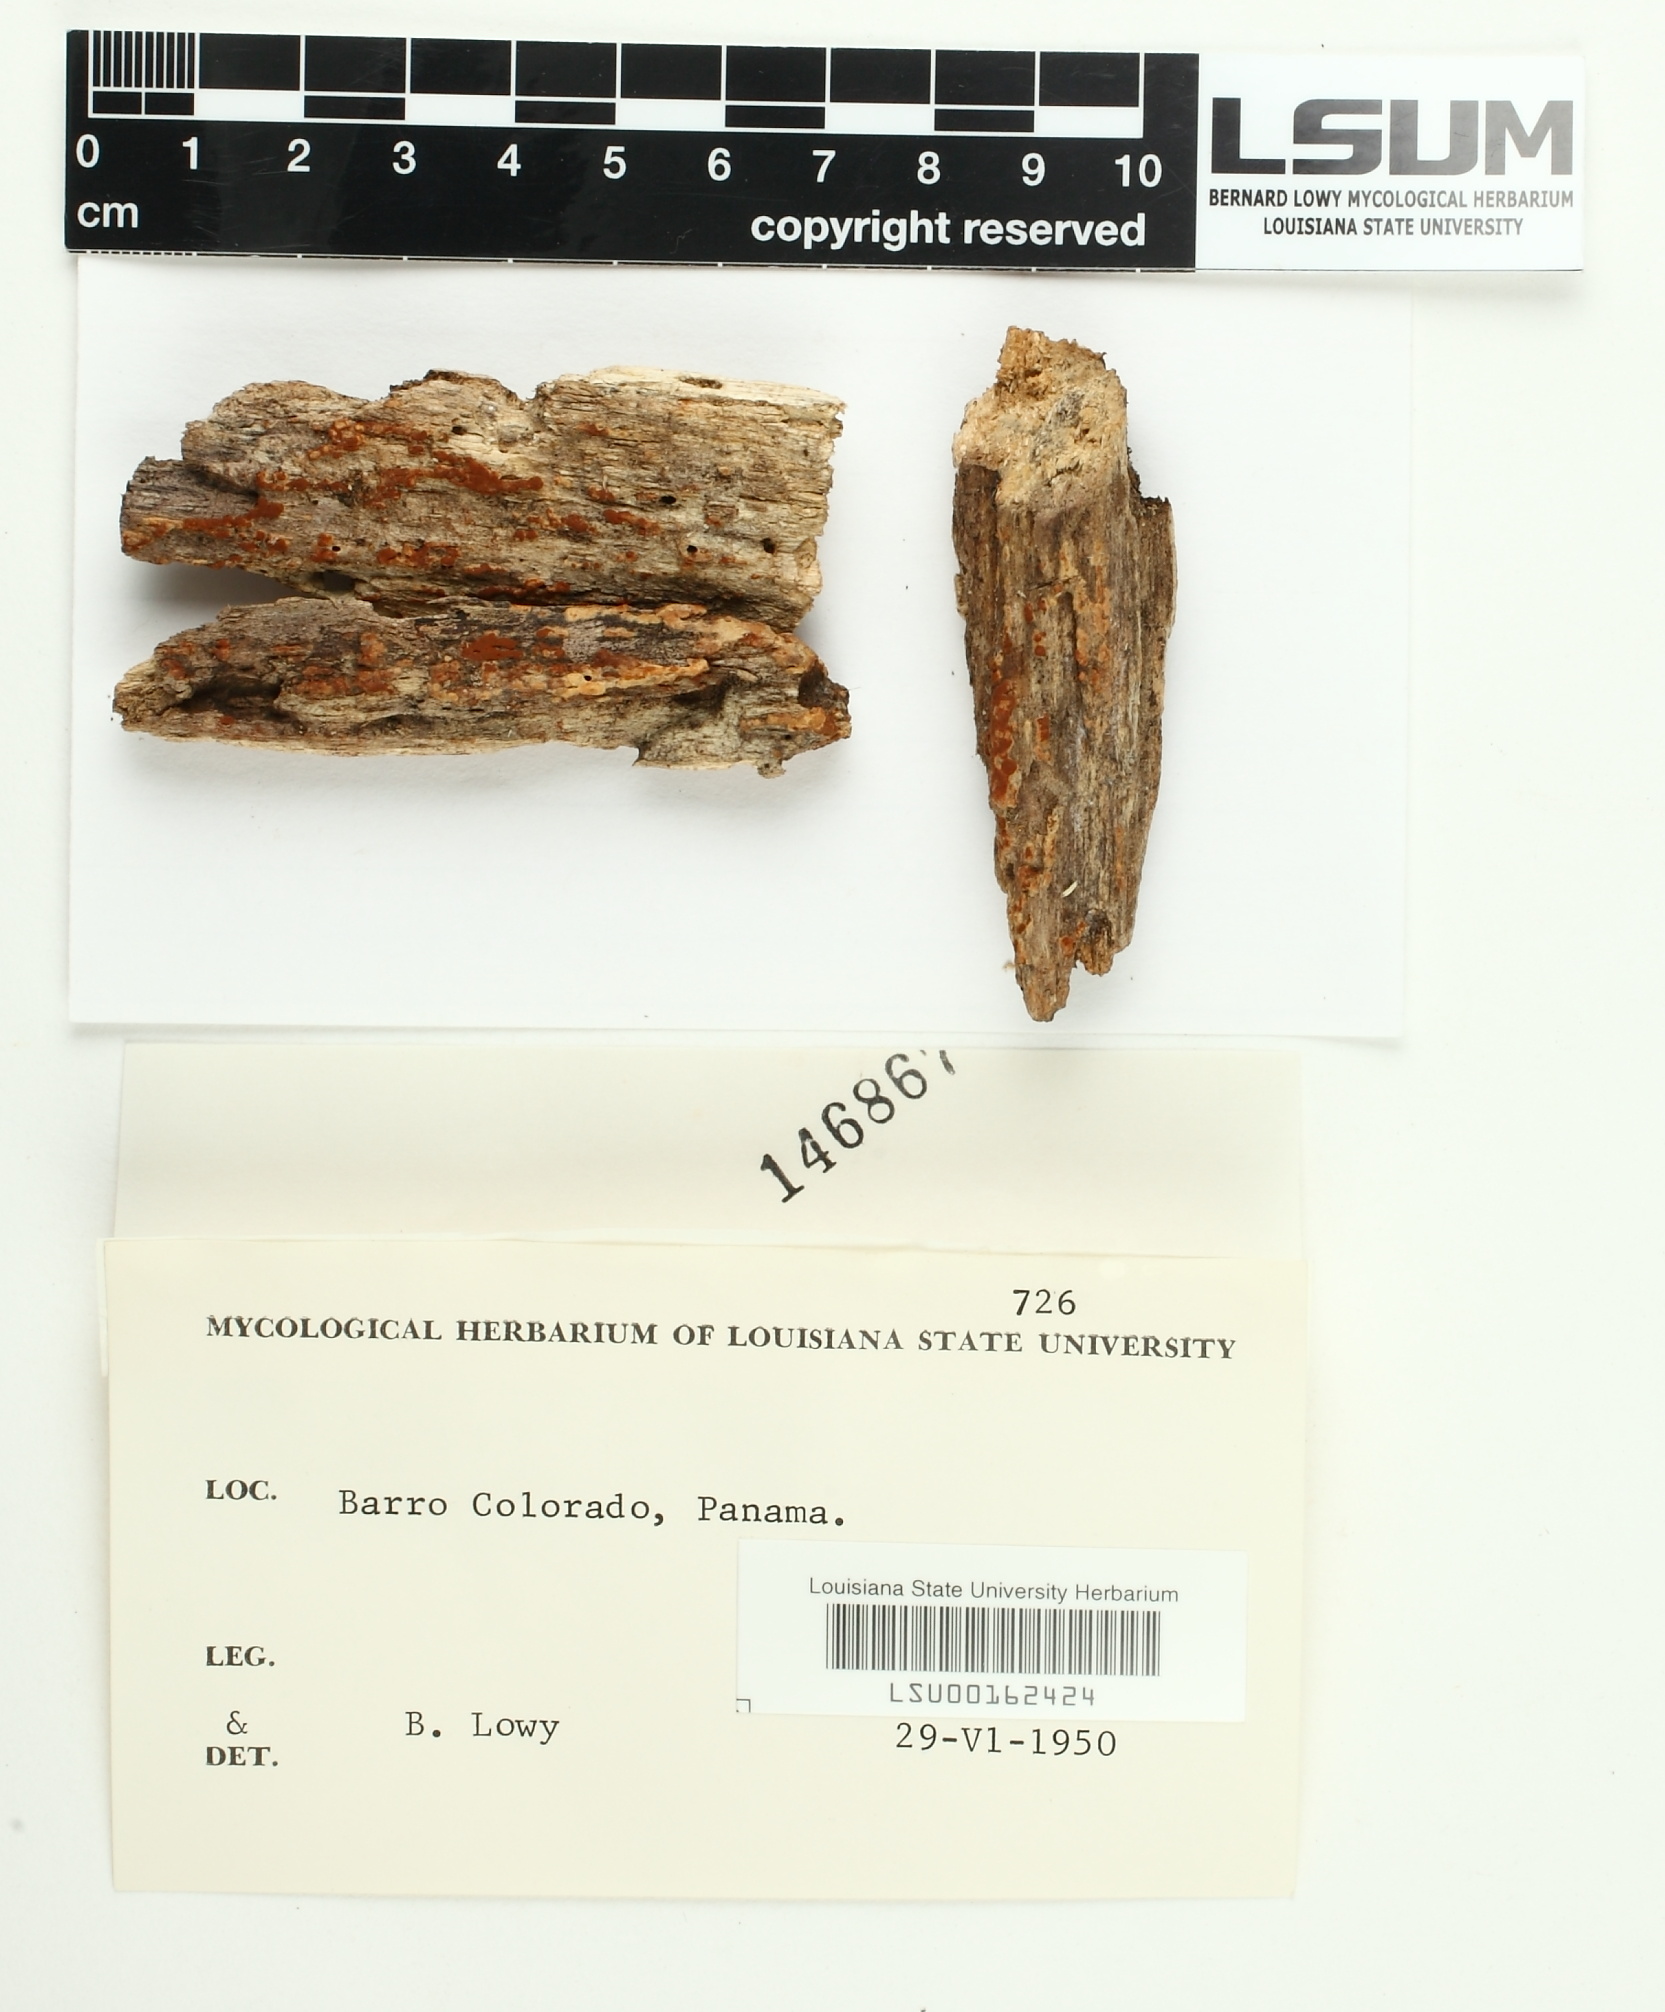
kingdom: Fungi
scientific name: Fungi
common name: Fungi
